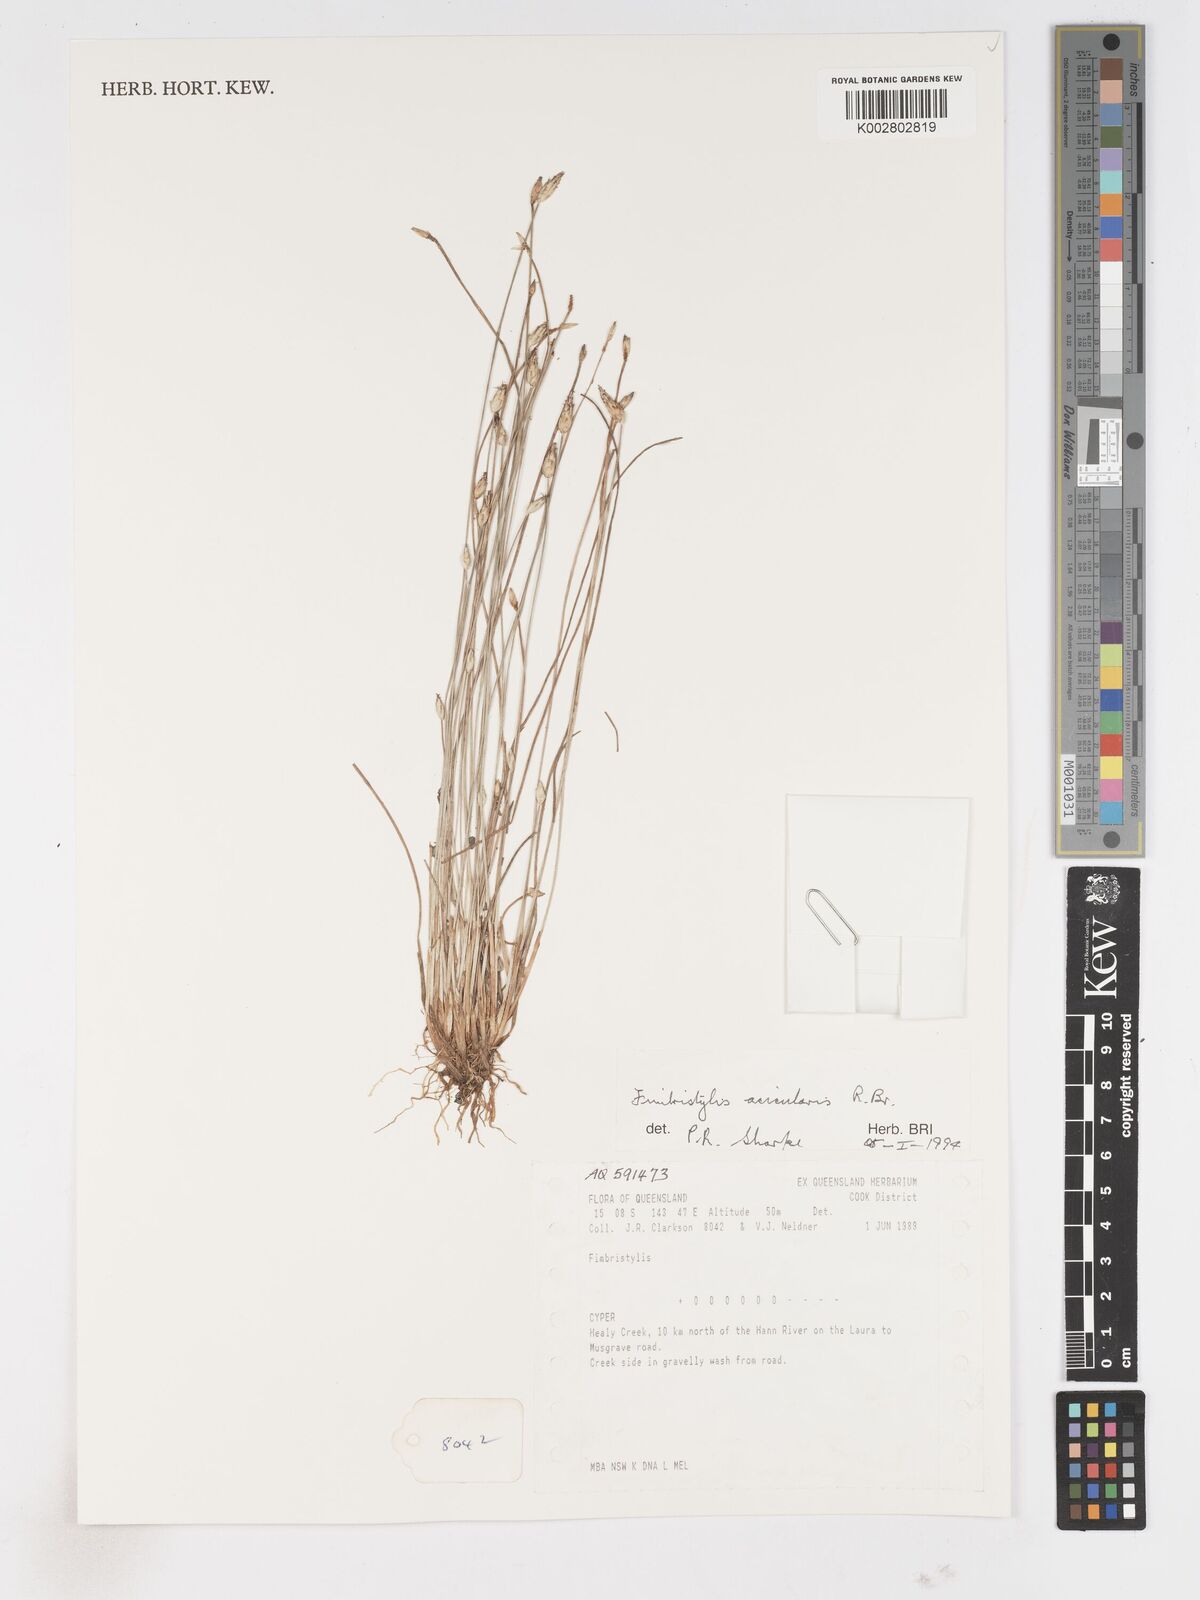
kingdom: Plantae
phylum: Tracheophyta
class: Liliopsida
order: Poales
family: Cyperaceae
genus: Fimbristylis
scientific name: Fimbristylis acicularis
